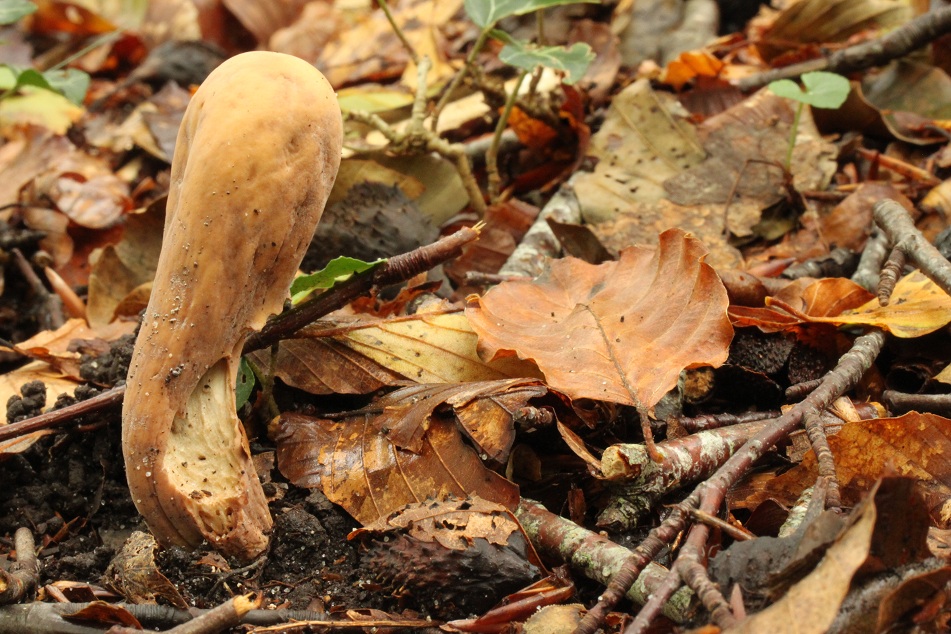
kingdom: Fungi
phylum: Basidiomycota
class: Agaricomycetes
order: Gomphales
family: Clavariadelphaceae
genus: Clavariadelphus
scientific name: Clavariadelphus pistillaris
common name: herkules-kæmpekølle
